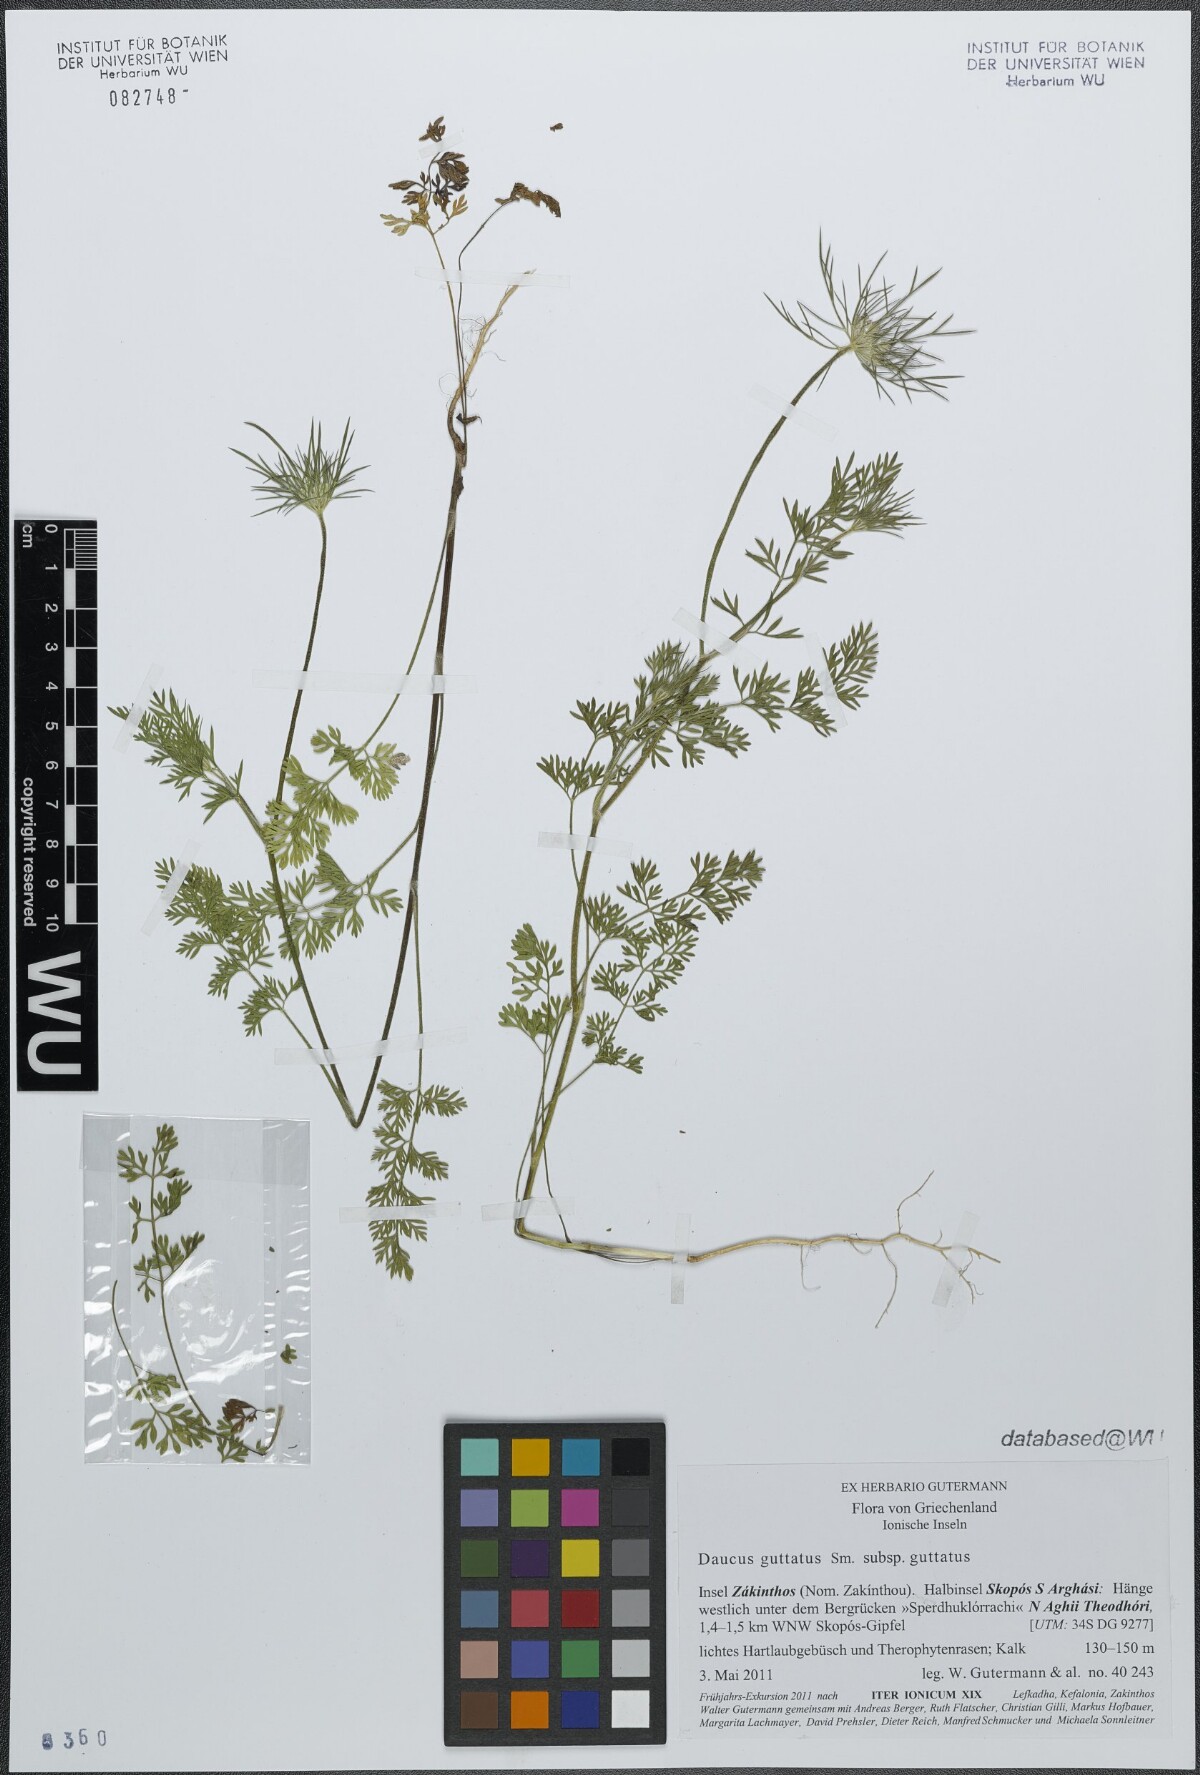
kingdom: Plantae
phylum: Tracheophyta
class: Magnoliopsida
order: Apiales
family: Apiaceae
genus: Daucus
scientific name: Daucus guttatus
